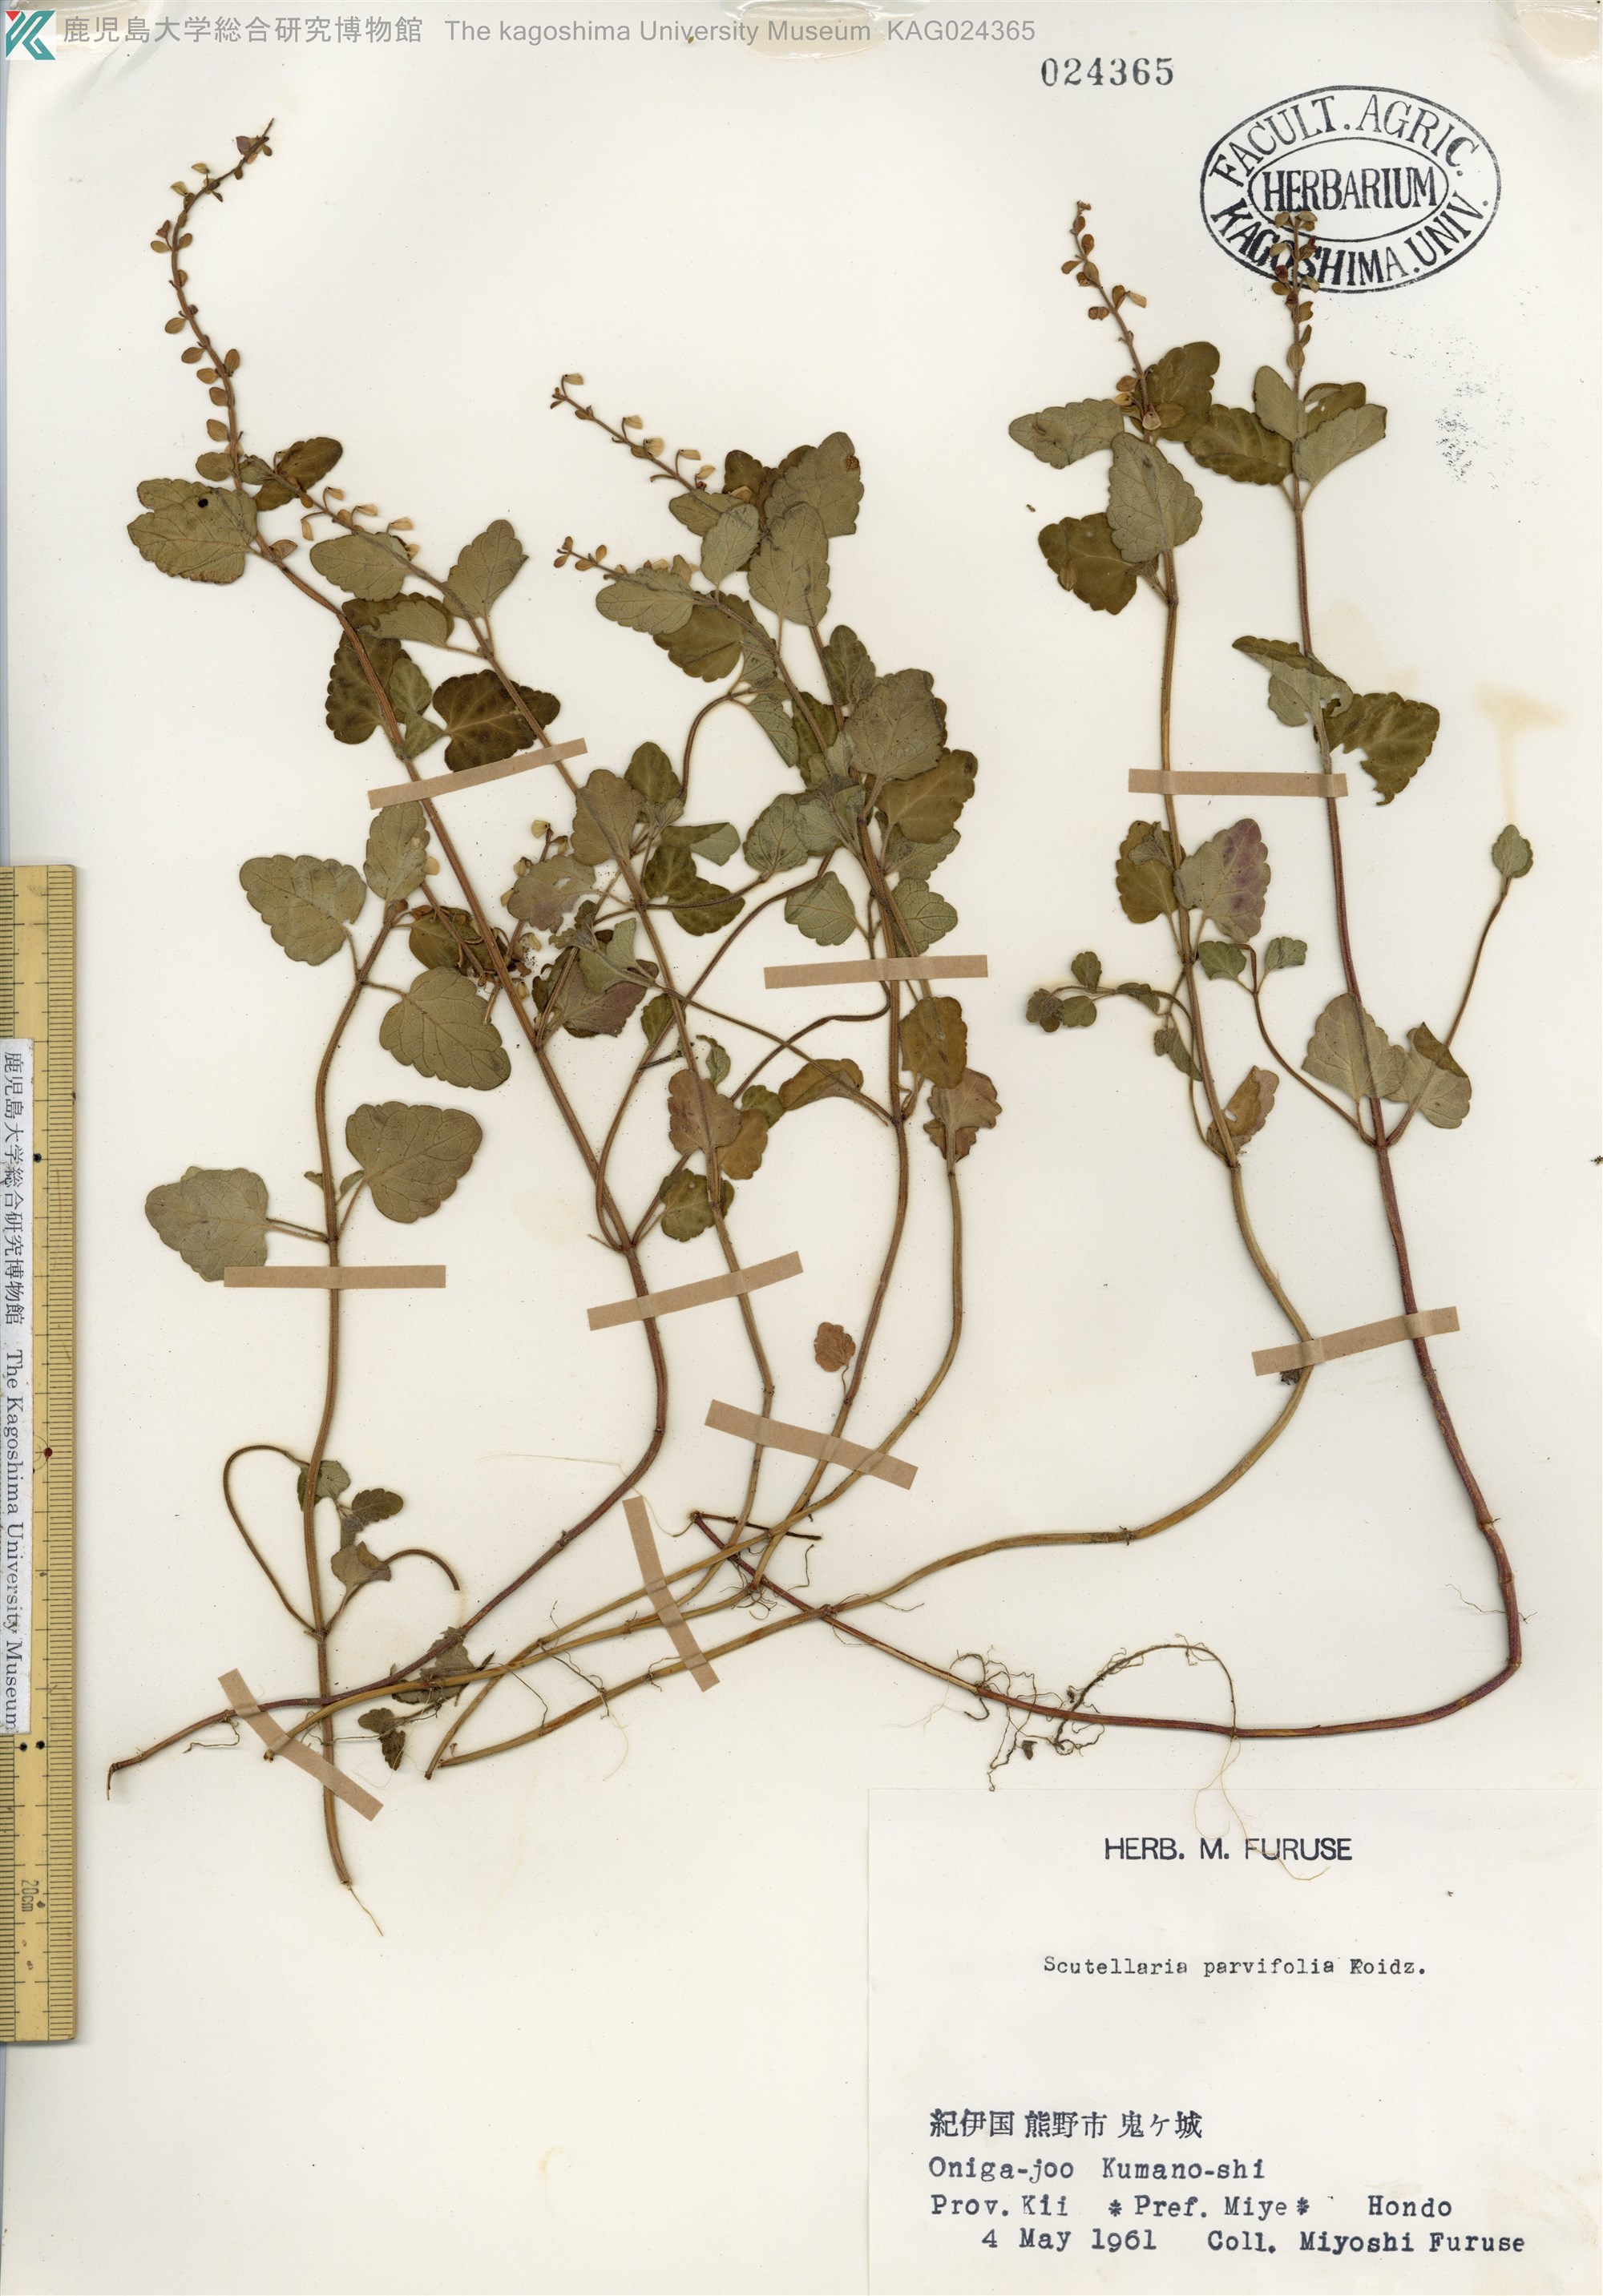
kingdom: Plantae
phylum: Tracheophyta
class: Magnoliopsida
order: Lamiales
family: Lamiaceae
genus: Scutellaria
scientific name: Scutellaria indica
